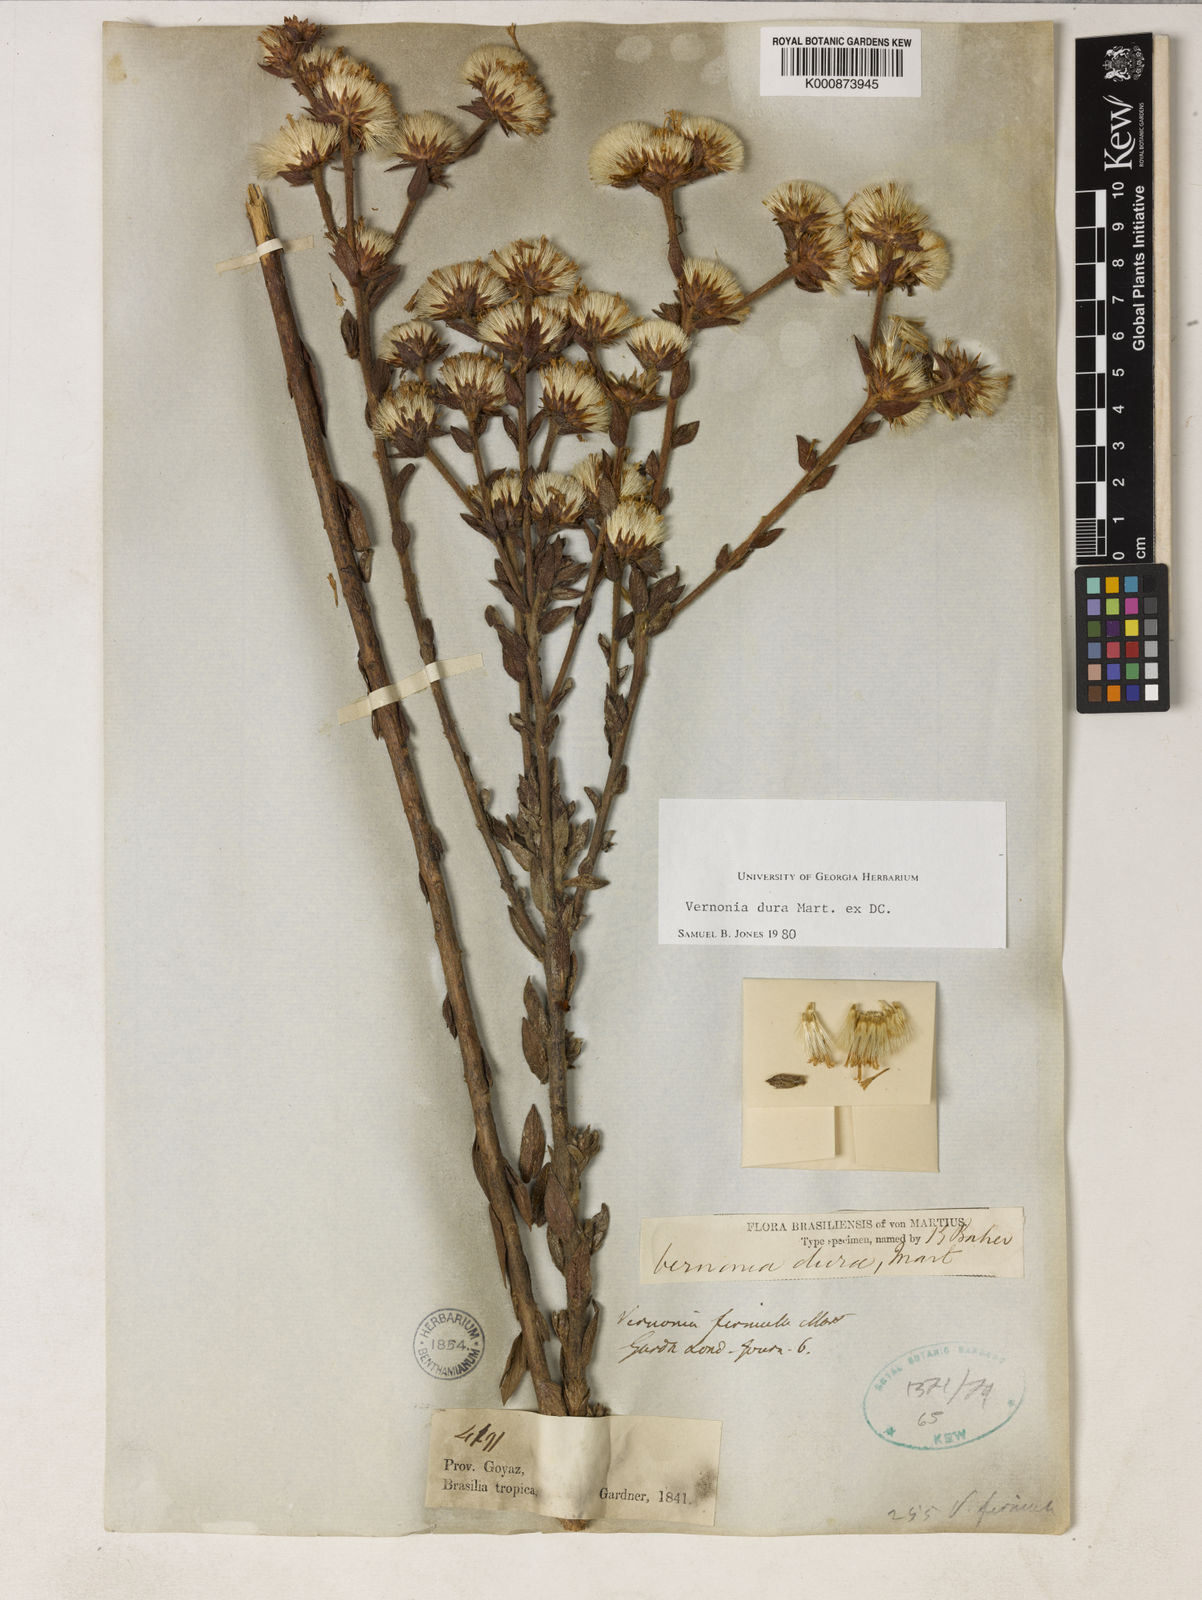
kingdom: Plantae
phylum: Tracheophyta
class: Magnoliopsida
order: Asterales
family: Asteraceae
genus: Lessingianthus
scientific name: Lessingianthus durus
